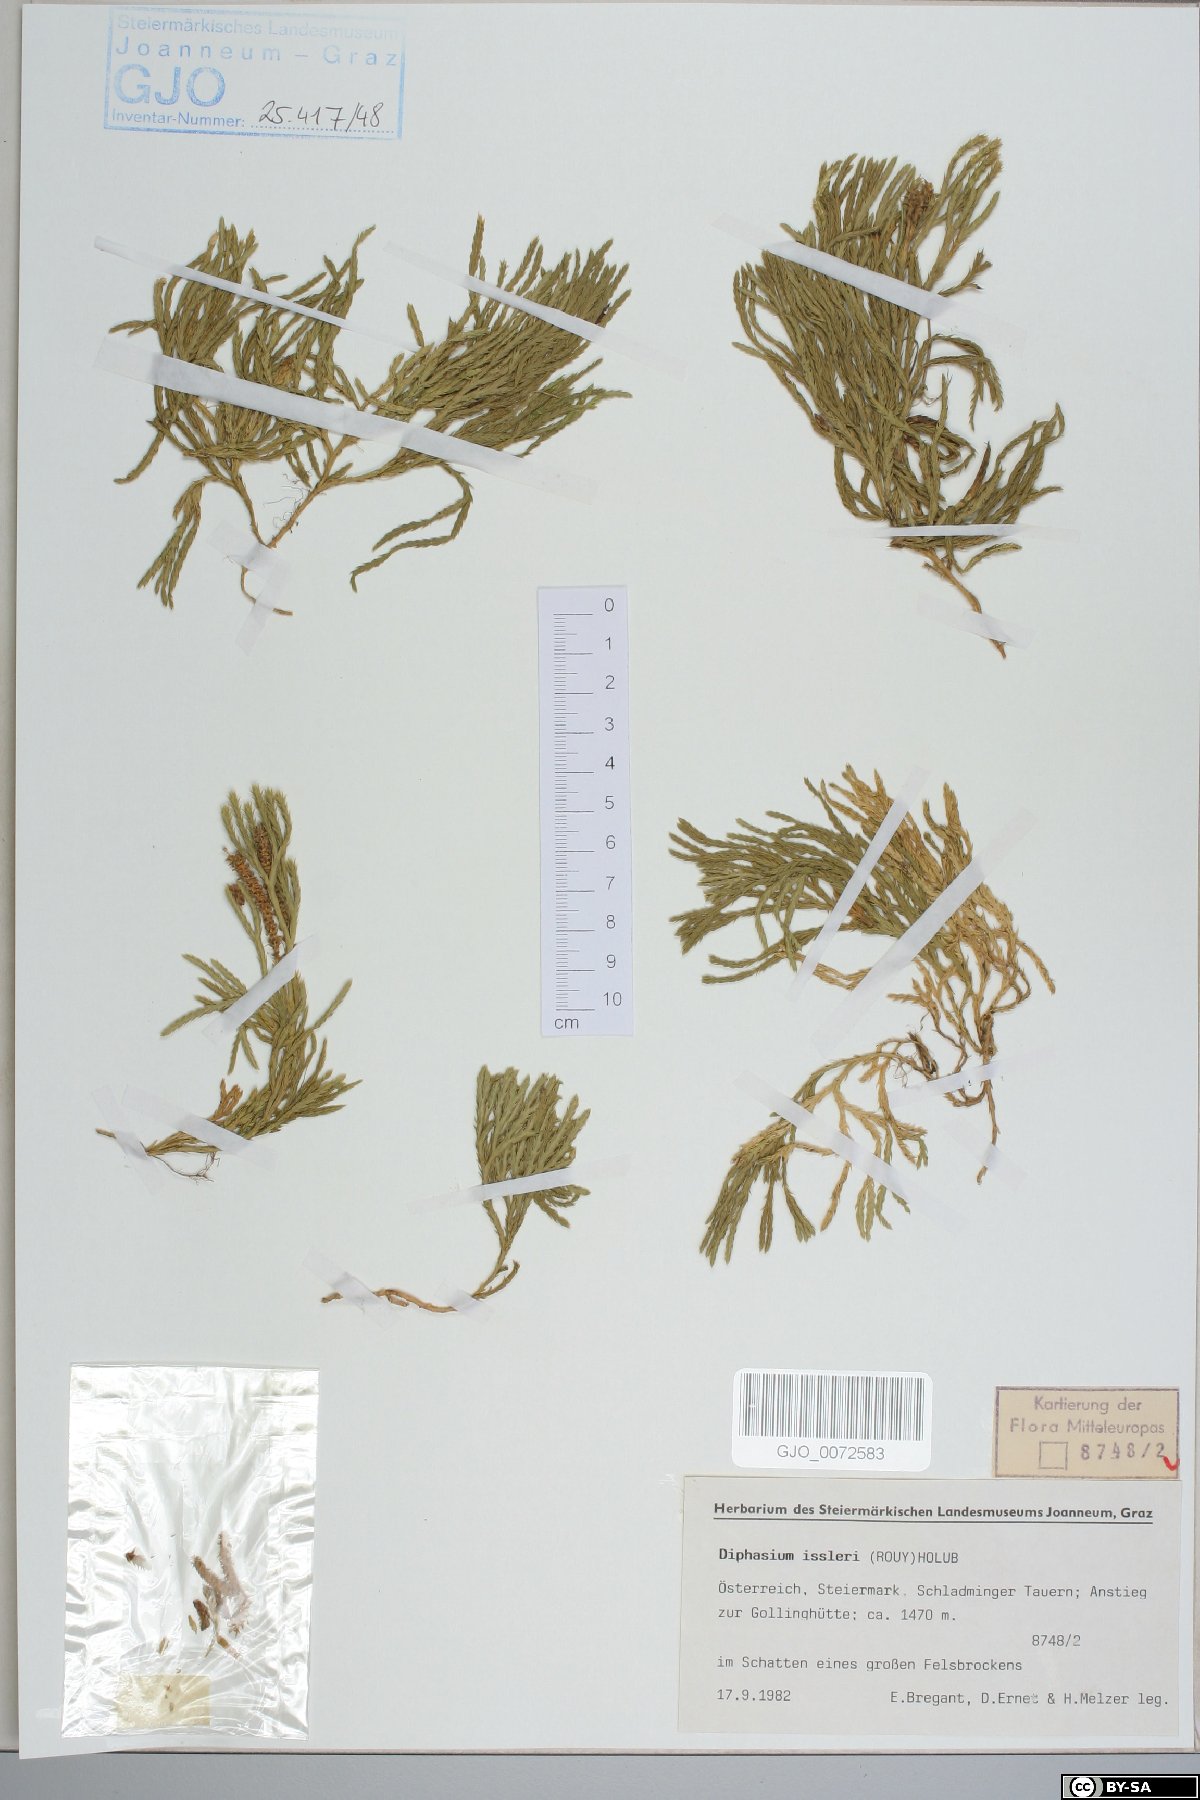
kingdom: Plantae
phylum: Tracheophyta
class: Lycopodiopsida
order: Lycopodiales
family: Lycopodiaceae
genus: Diphasiastrum
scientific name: Diphasiastrum issleri
